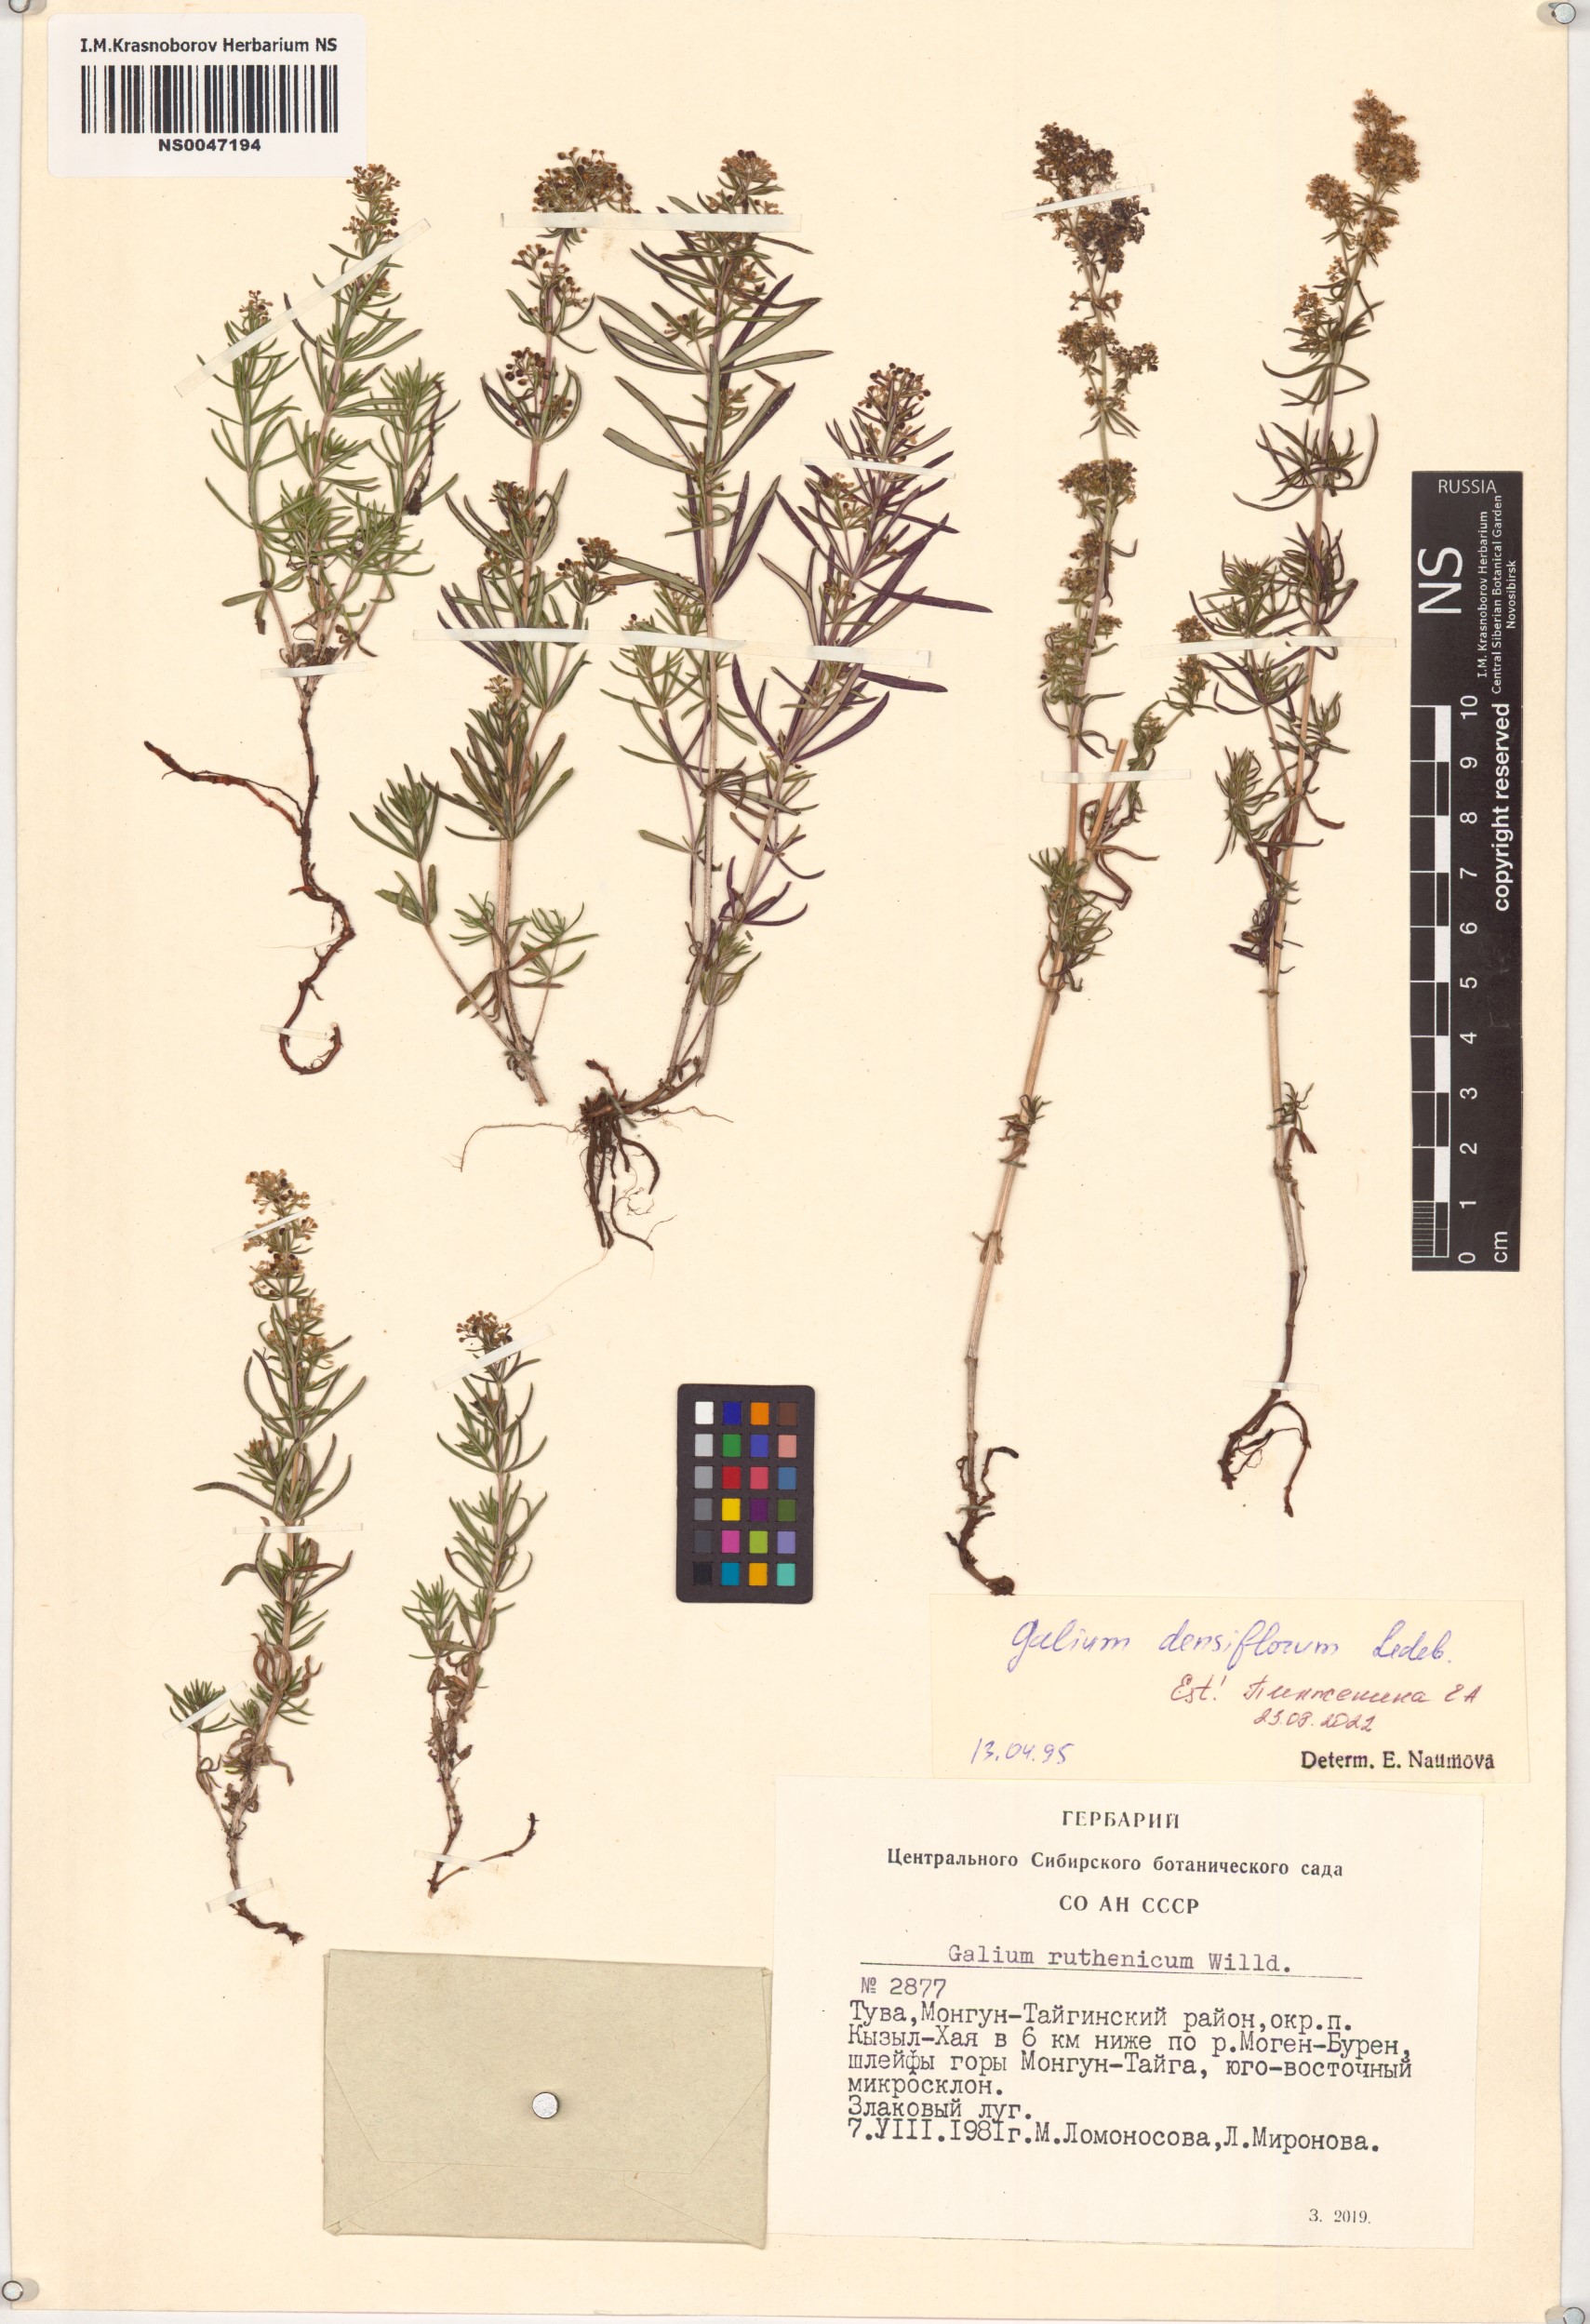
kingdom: Plantae
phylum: Tracheophyta
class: Magnoliopsida
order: Gentianales
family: Rubiaceae
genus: Galium
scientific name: Galium densiflorum
